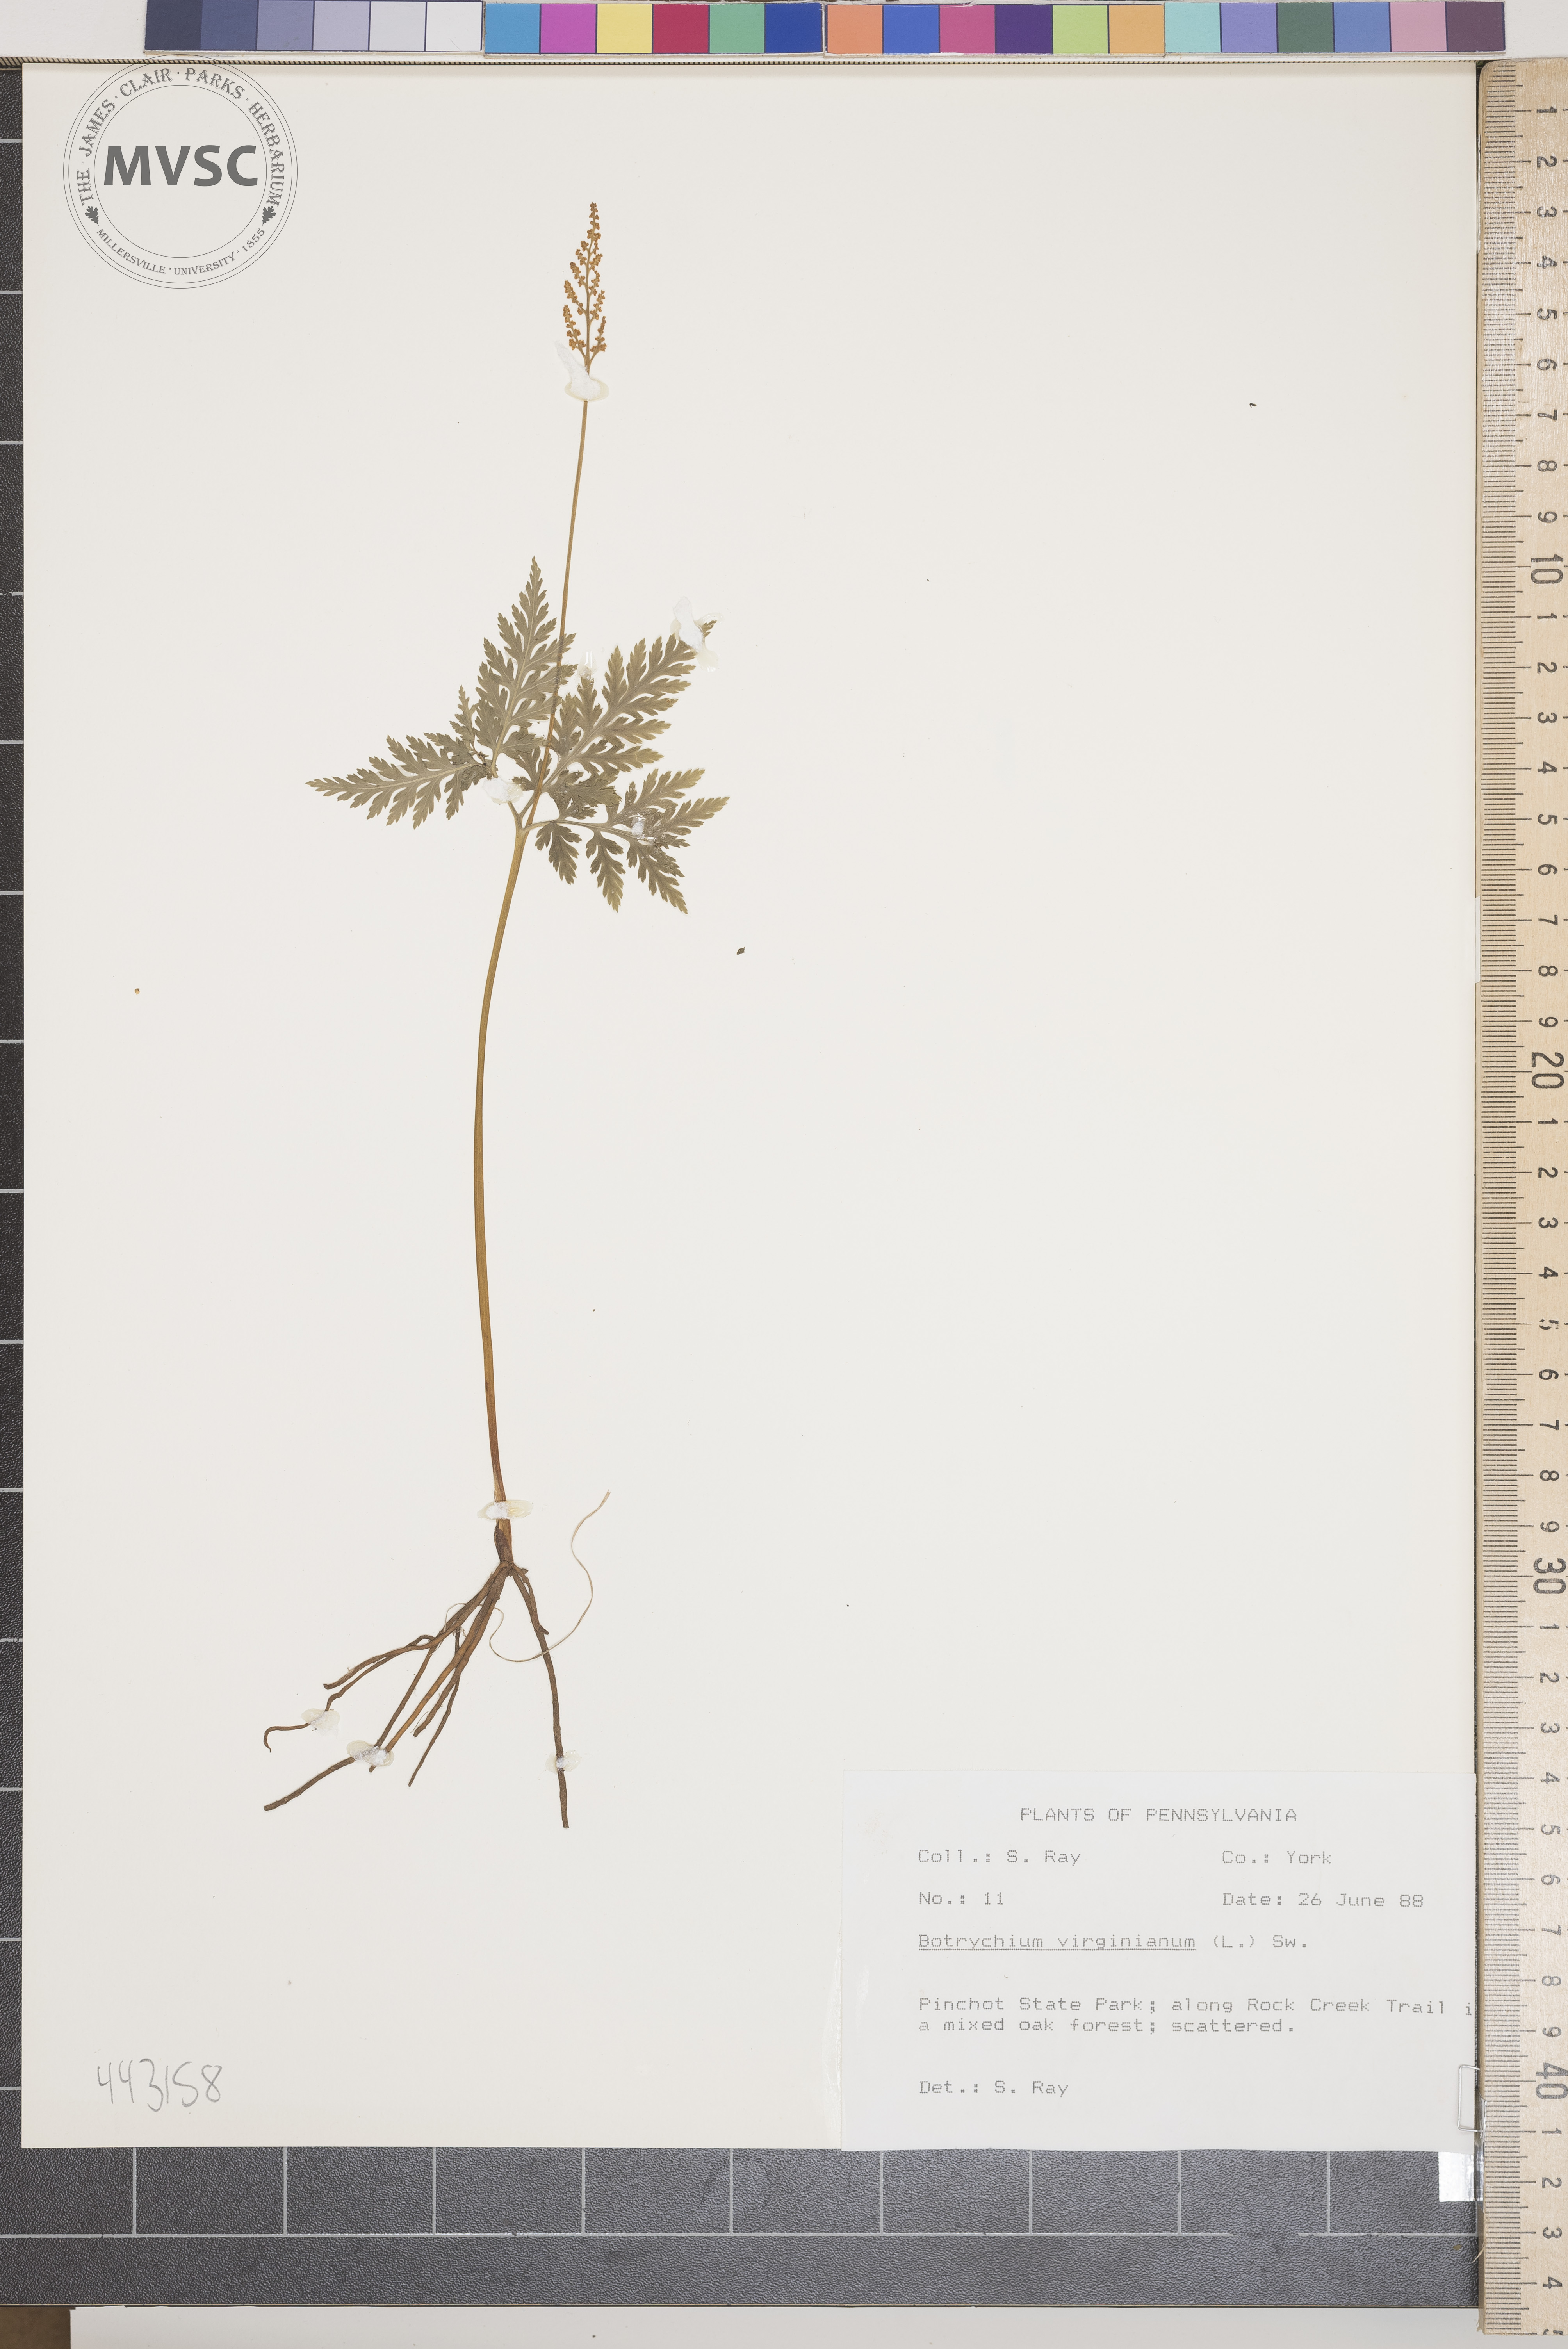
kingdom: Plantae
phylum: Tracheophyta
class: Polypodiopsida
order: Ophioglossales
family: Ophioglossaceae
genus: Botrypus
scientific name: Botrypus virginianus
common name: Common grapefern
